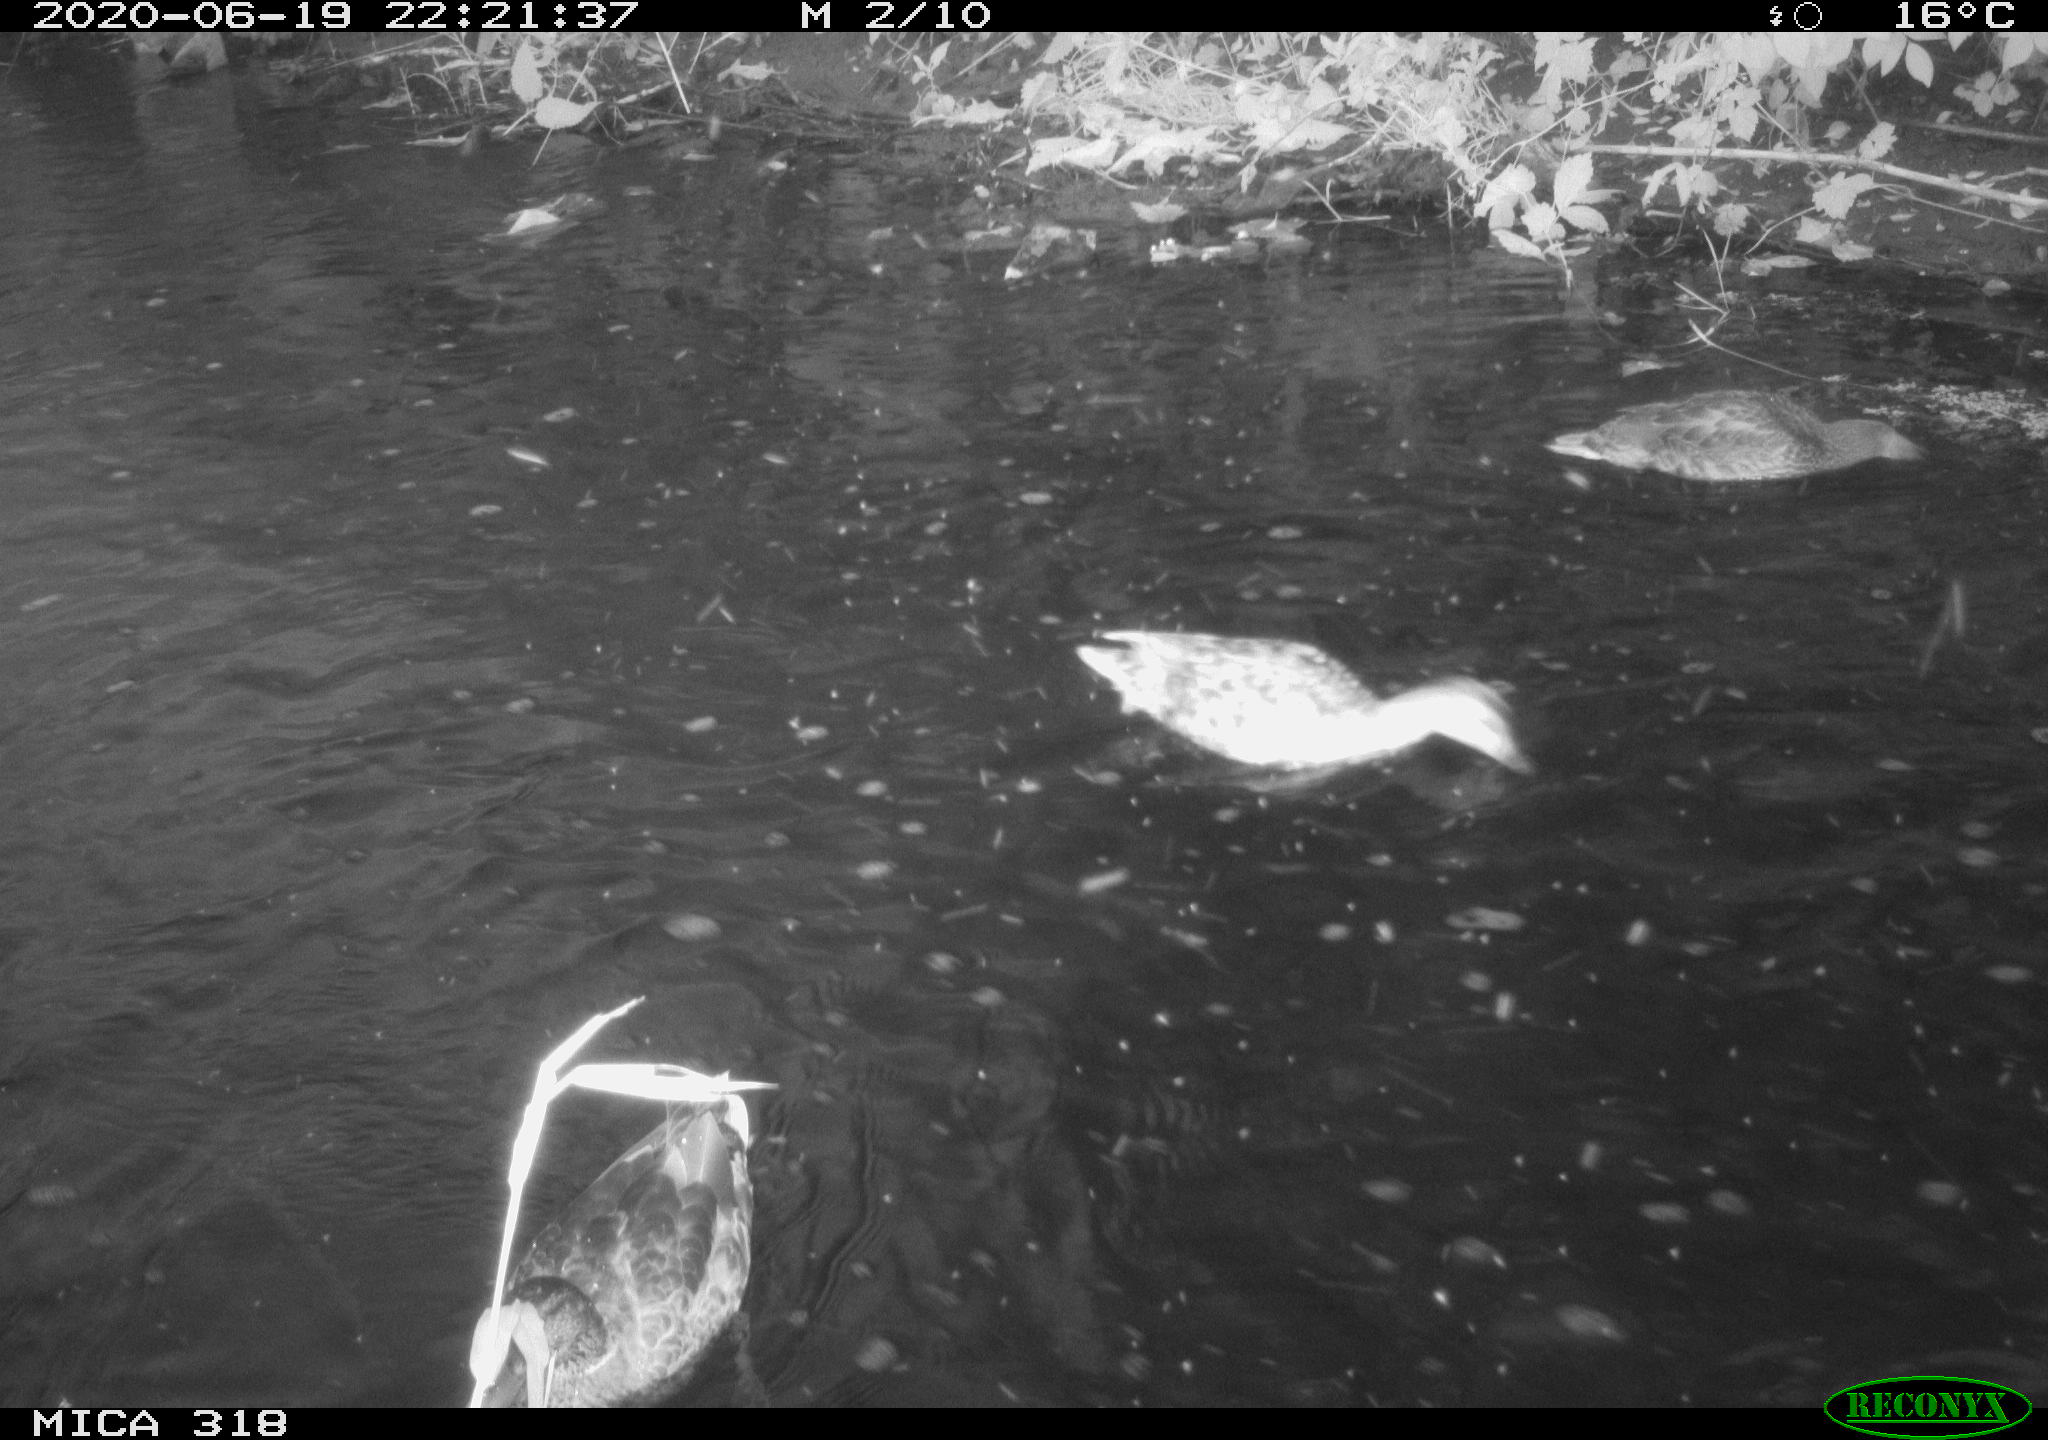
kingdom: Animalia
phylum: Chordata
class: Aves
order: Anseriformes
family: Anatidae
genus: Anas
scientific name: Anas platyrhynchos
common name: Mallard
